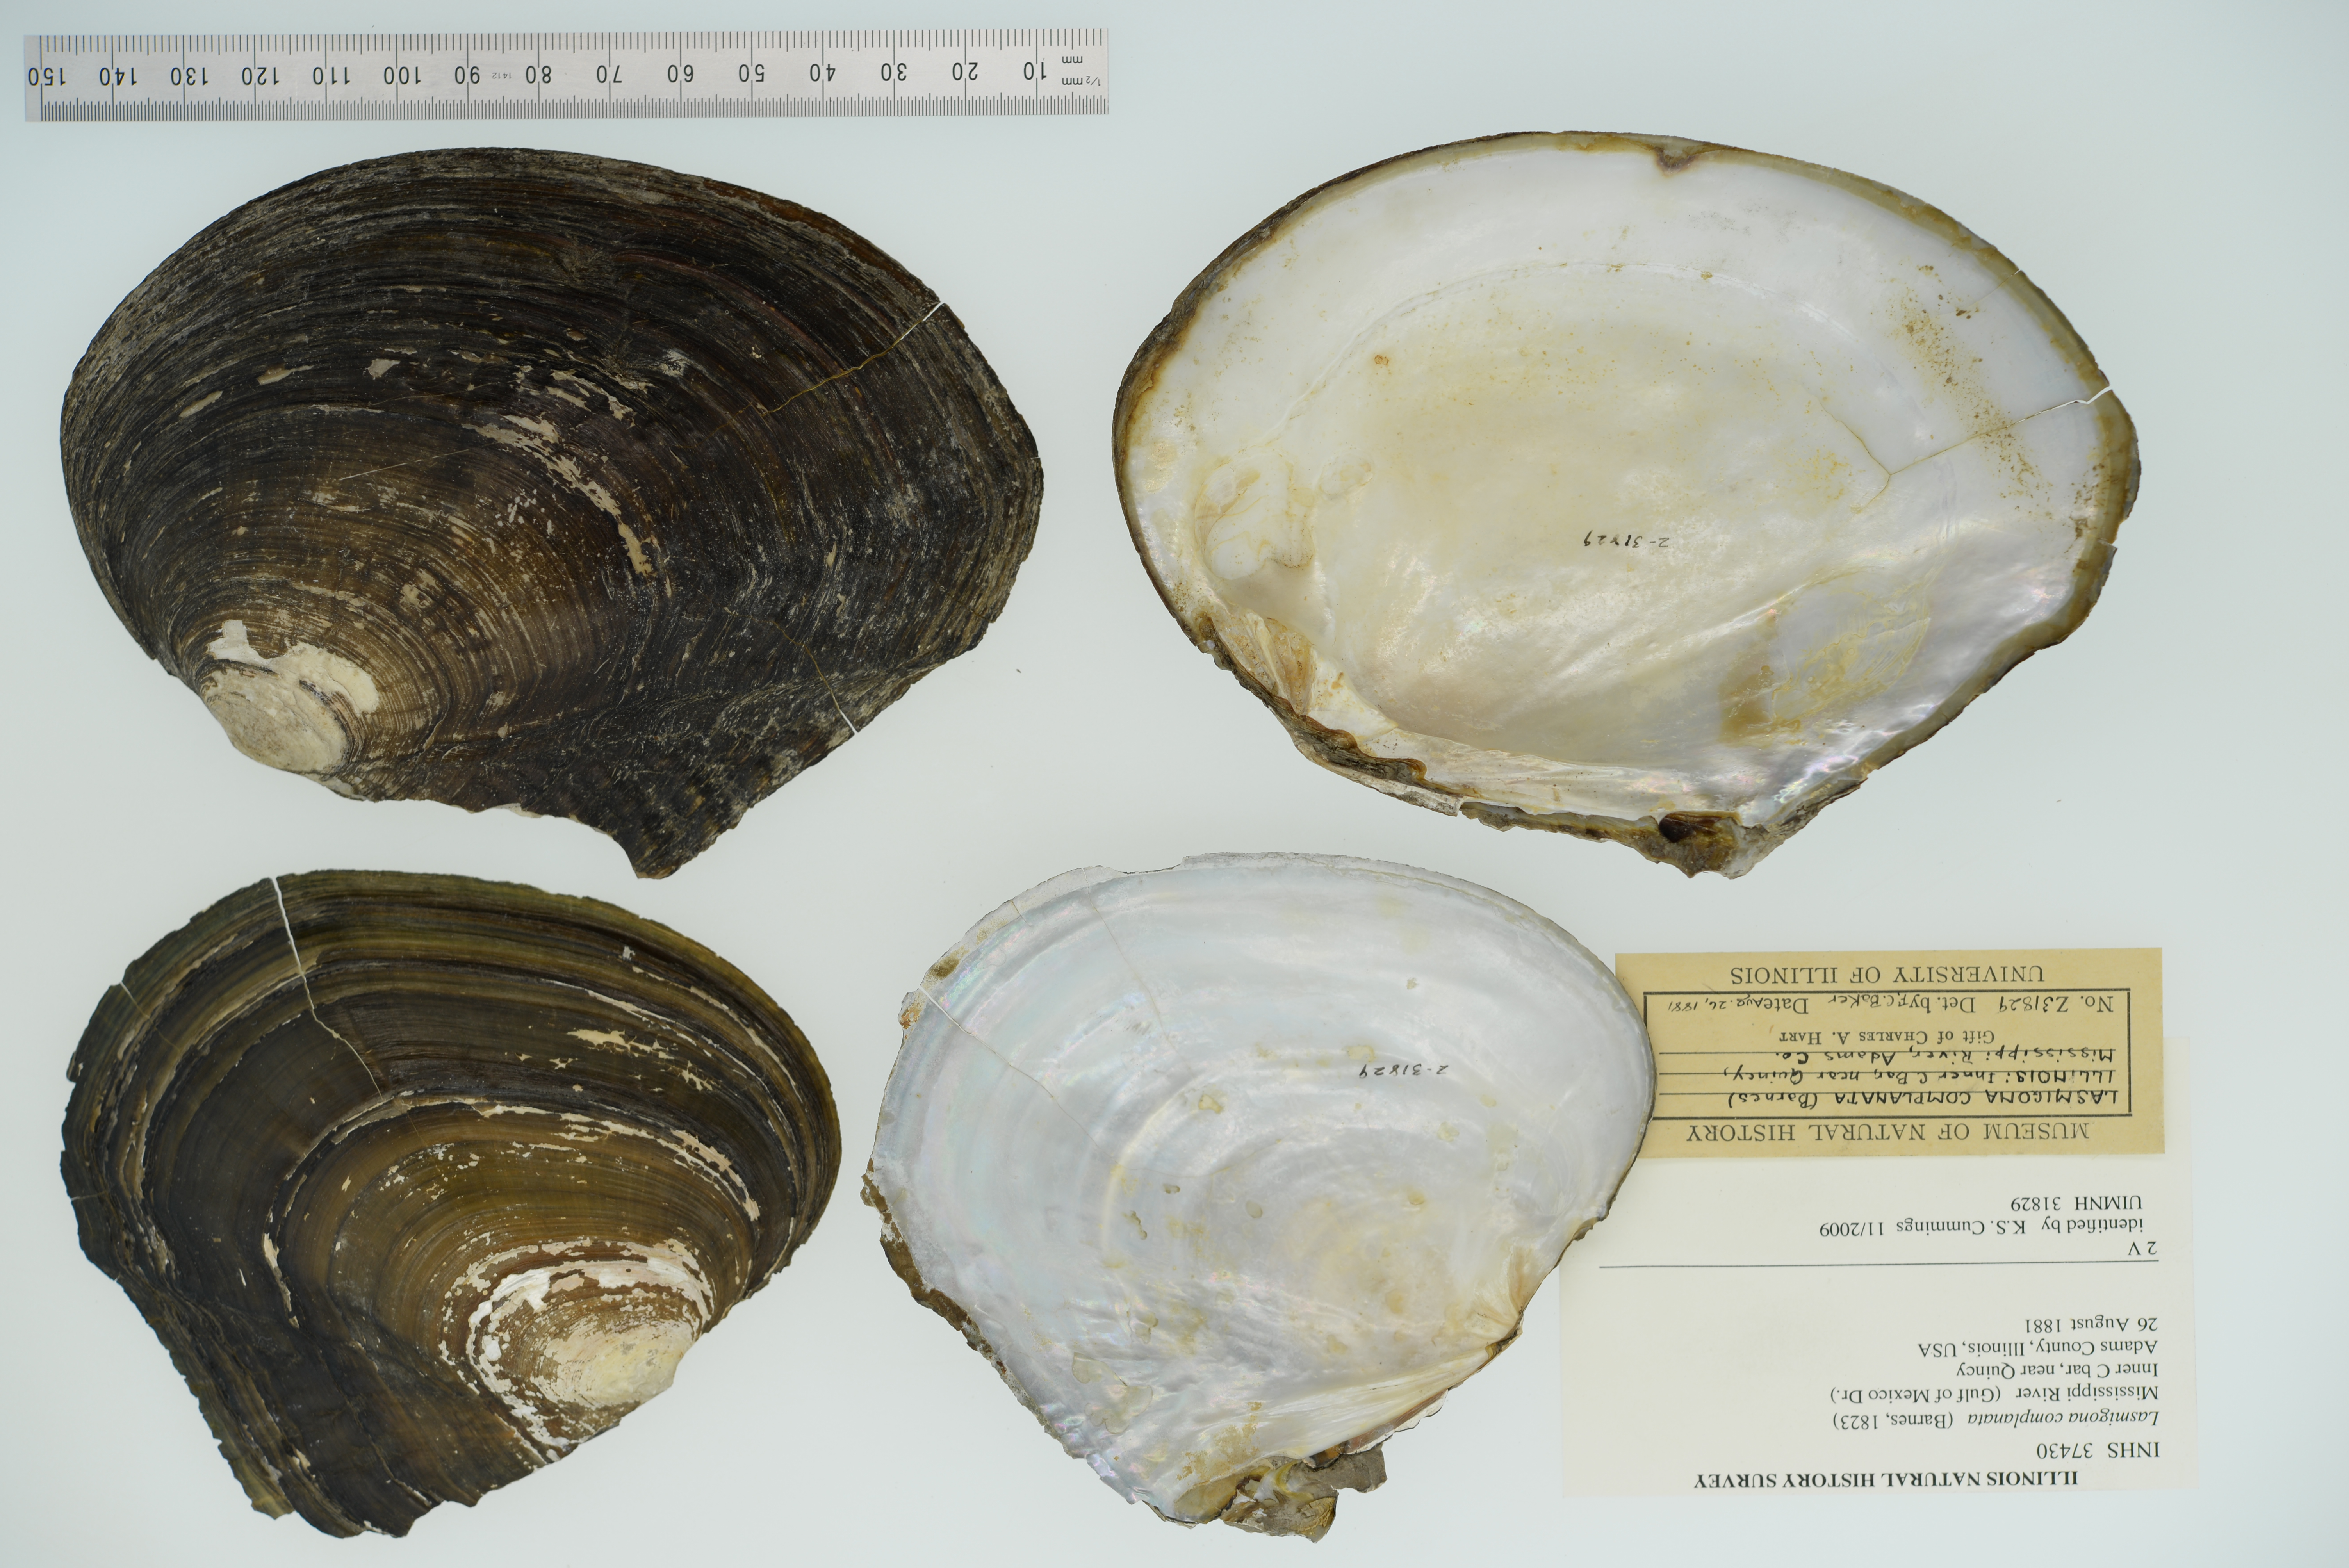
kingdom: Animalia
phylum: Mollusca
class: Bivalvia
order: Unionida
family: Unionidae
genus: Lasmigona
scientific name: Lasmigona complanata
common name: White heelsplitter
